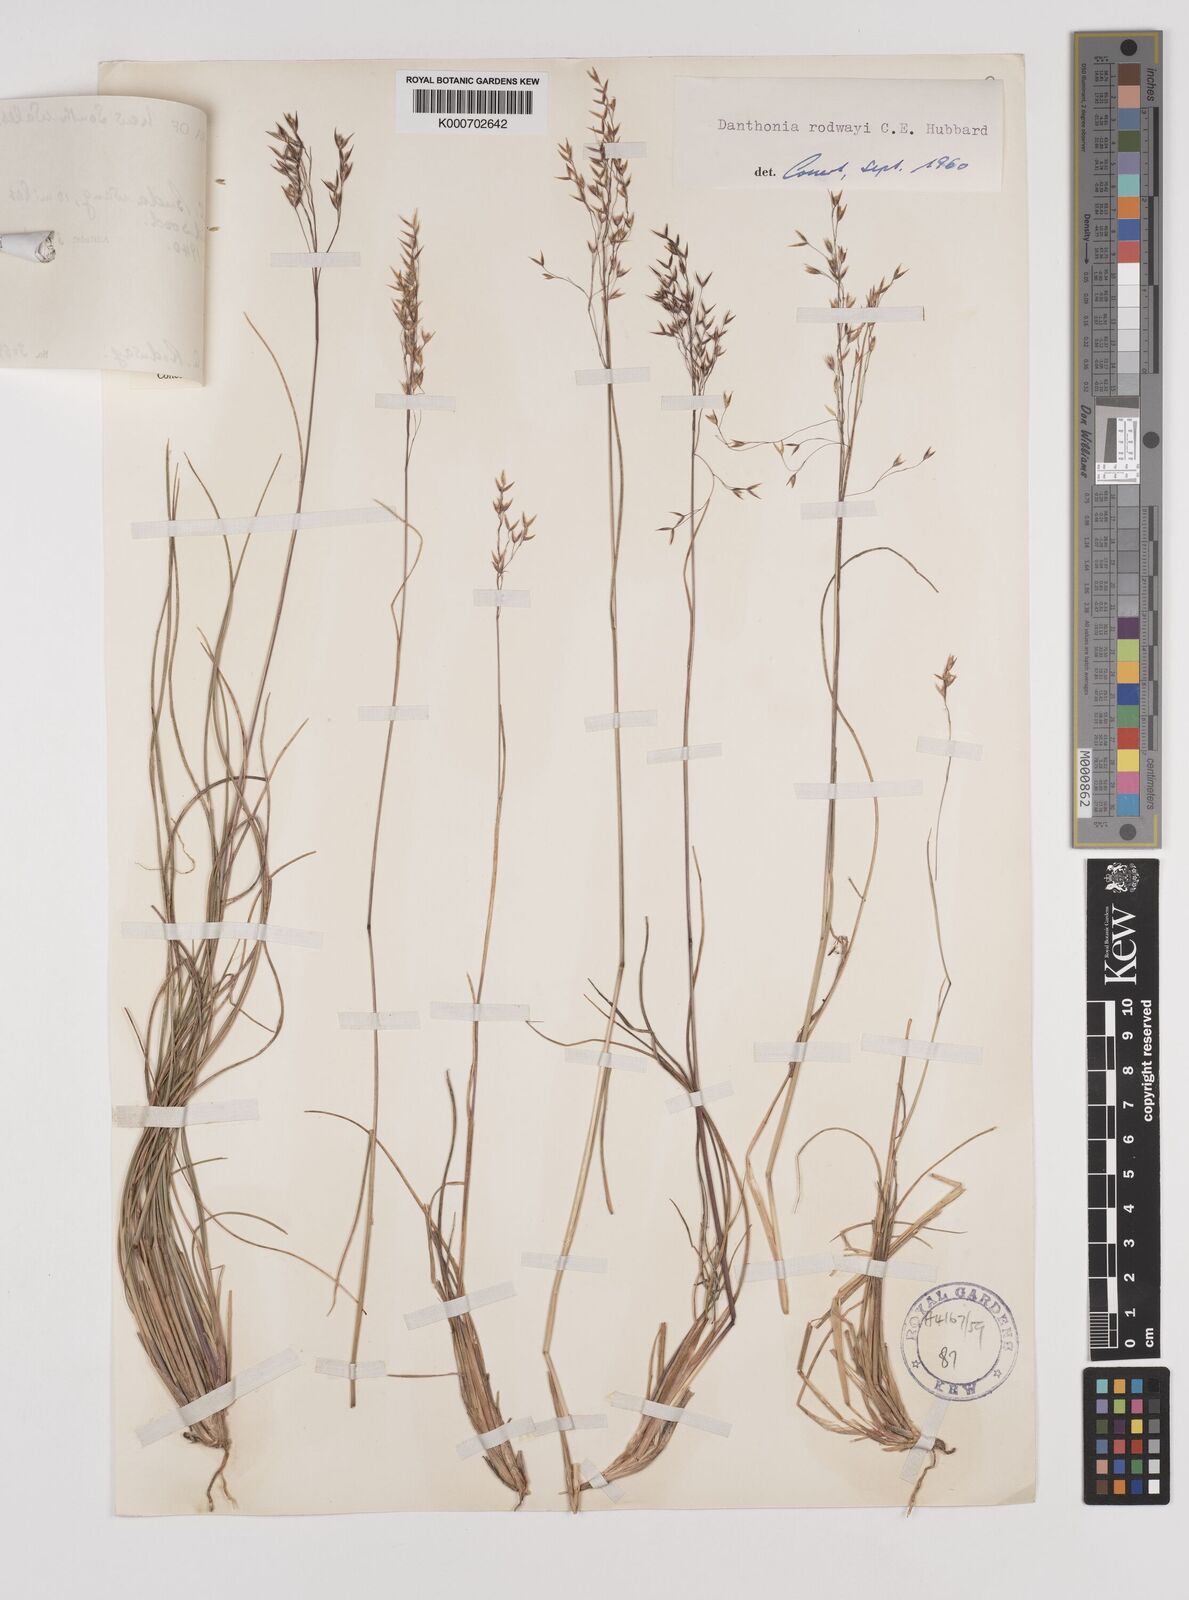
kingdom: Plantae
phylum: Tracheophyta
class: Liliopsida
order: Poales
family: Poaceae
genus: Plinthanthesis
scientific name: Plinthanthesis rodwayi
